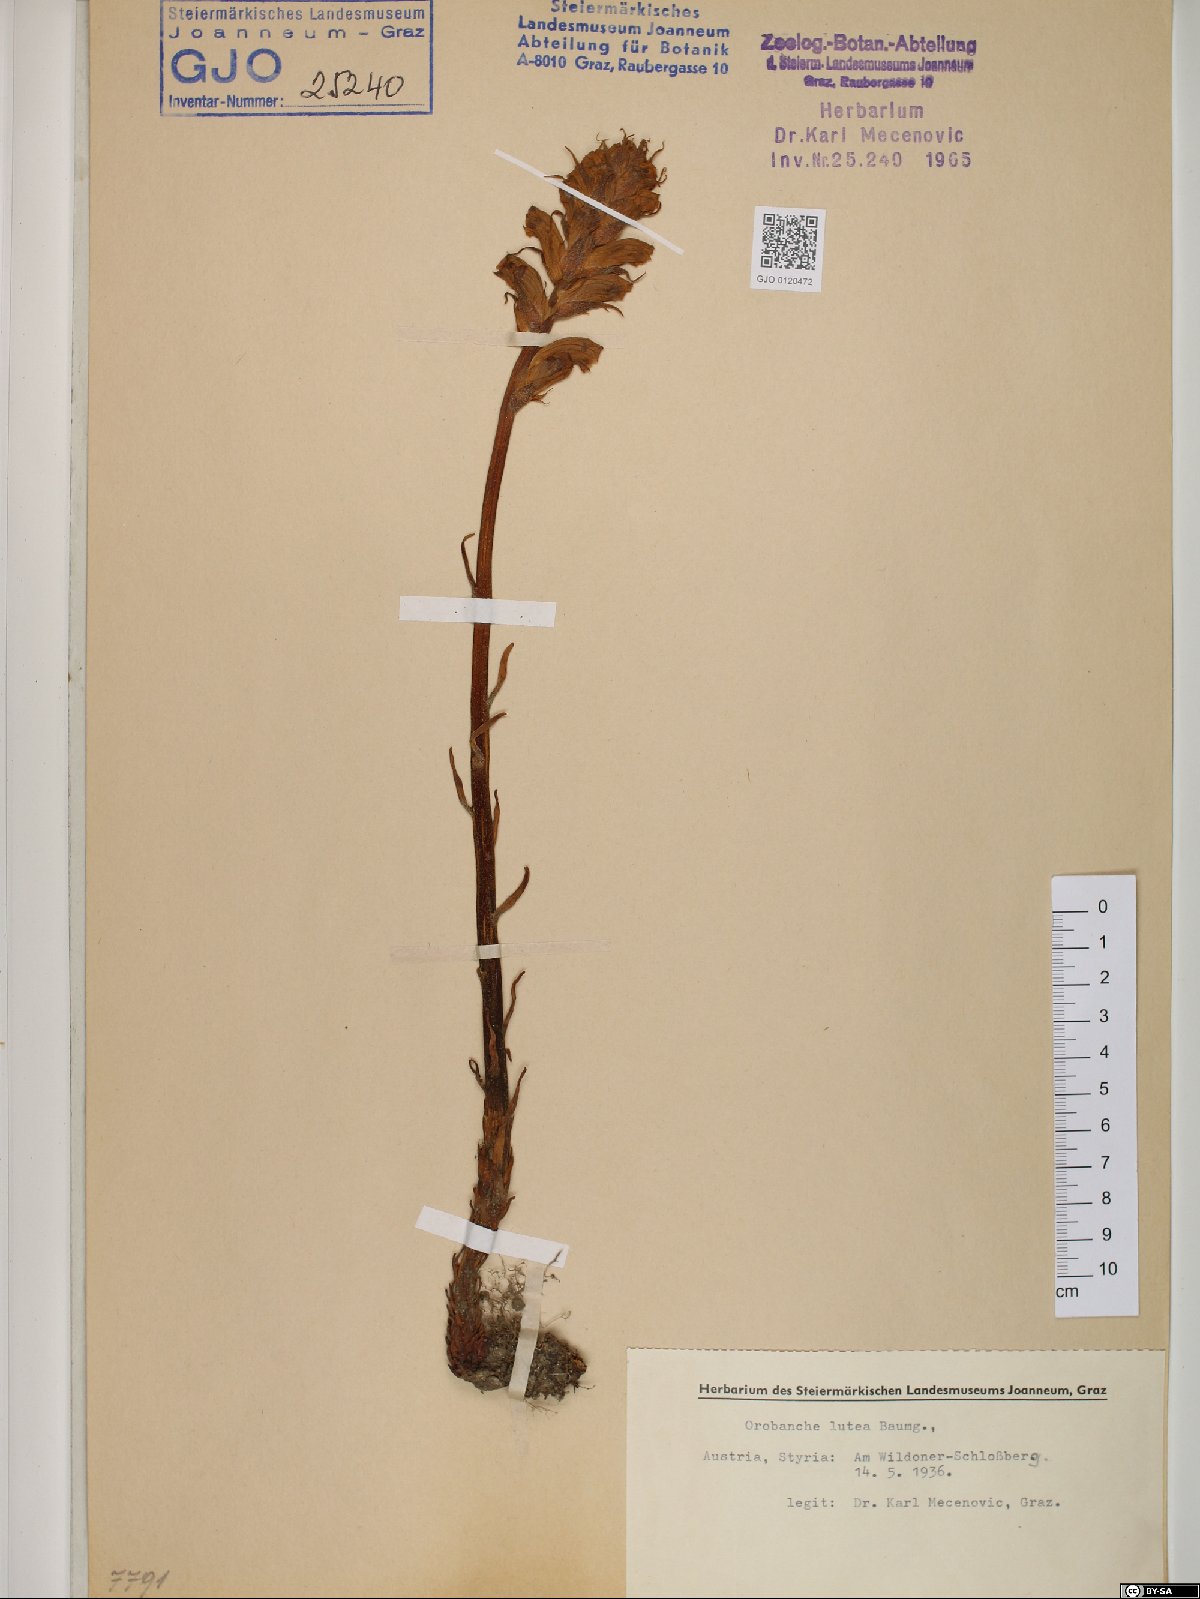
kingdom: Plantae
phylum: Tracheophyta
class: Magnoliopsida
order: Lamiales
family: Orobanchaceae
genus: Orobanche
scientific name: Orobanche lutea
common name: Yellow broomrape
